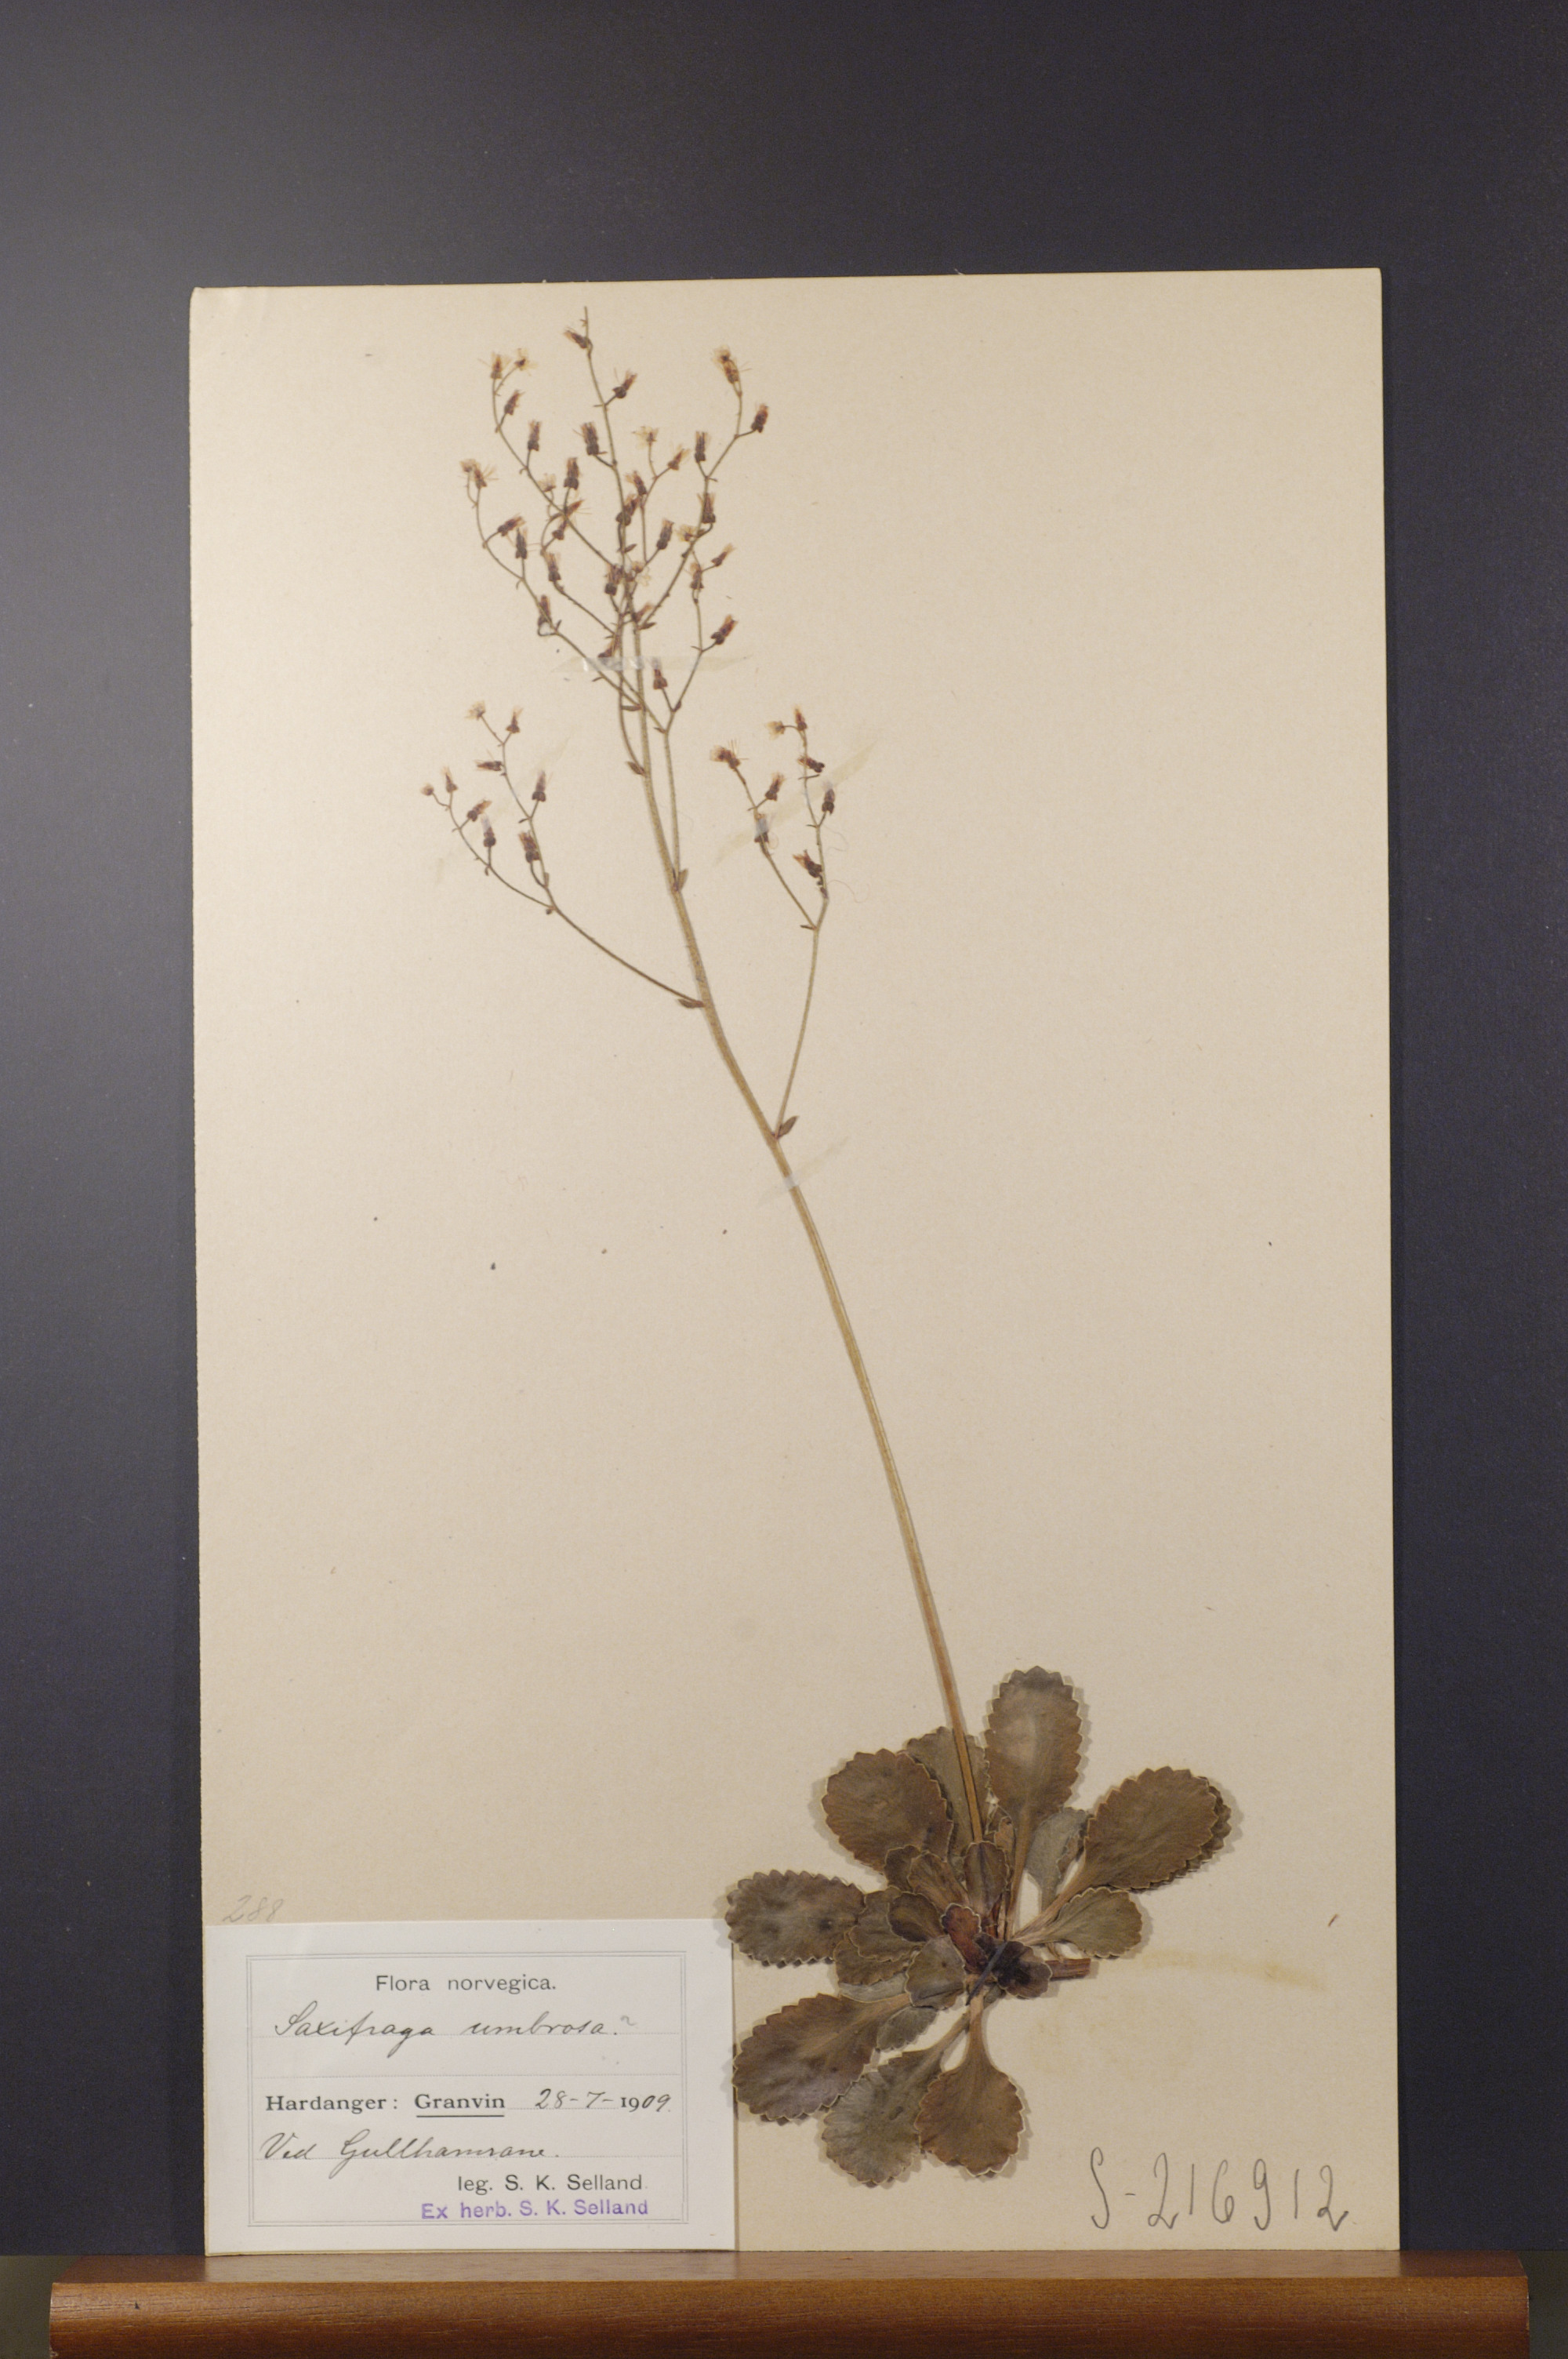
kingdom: Plantae
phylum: Tracheophyta
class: Magnoliopsida
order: Saxifragales
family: Saxifragaceae
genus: Saxifraga
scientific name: Saxifraga umbrosa
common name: Pyrenean saxifrage
